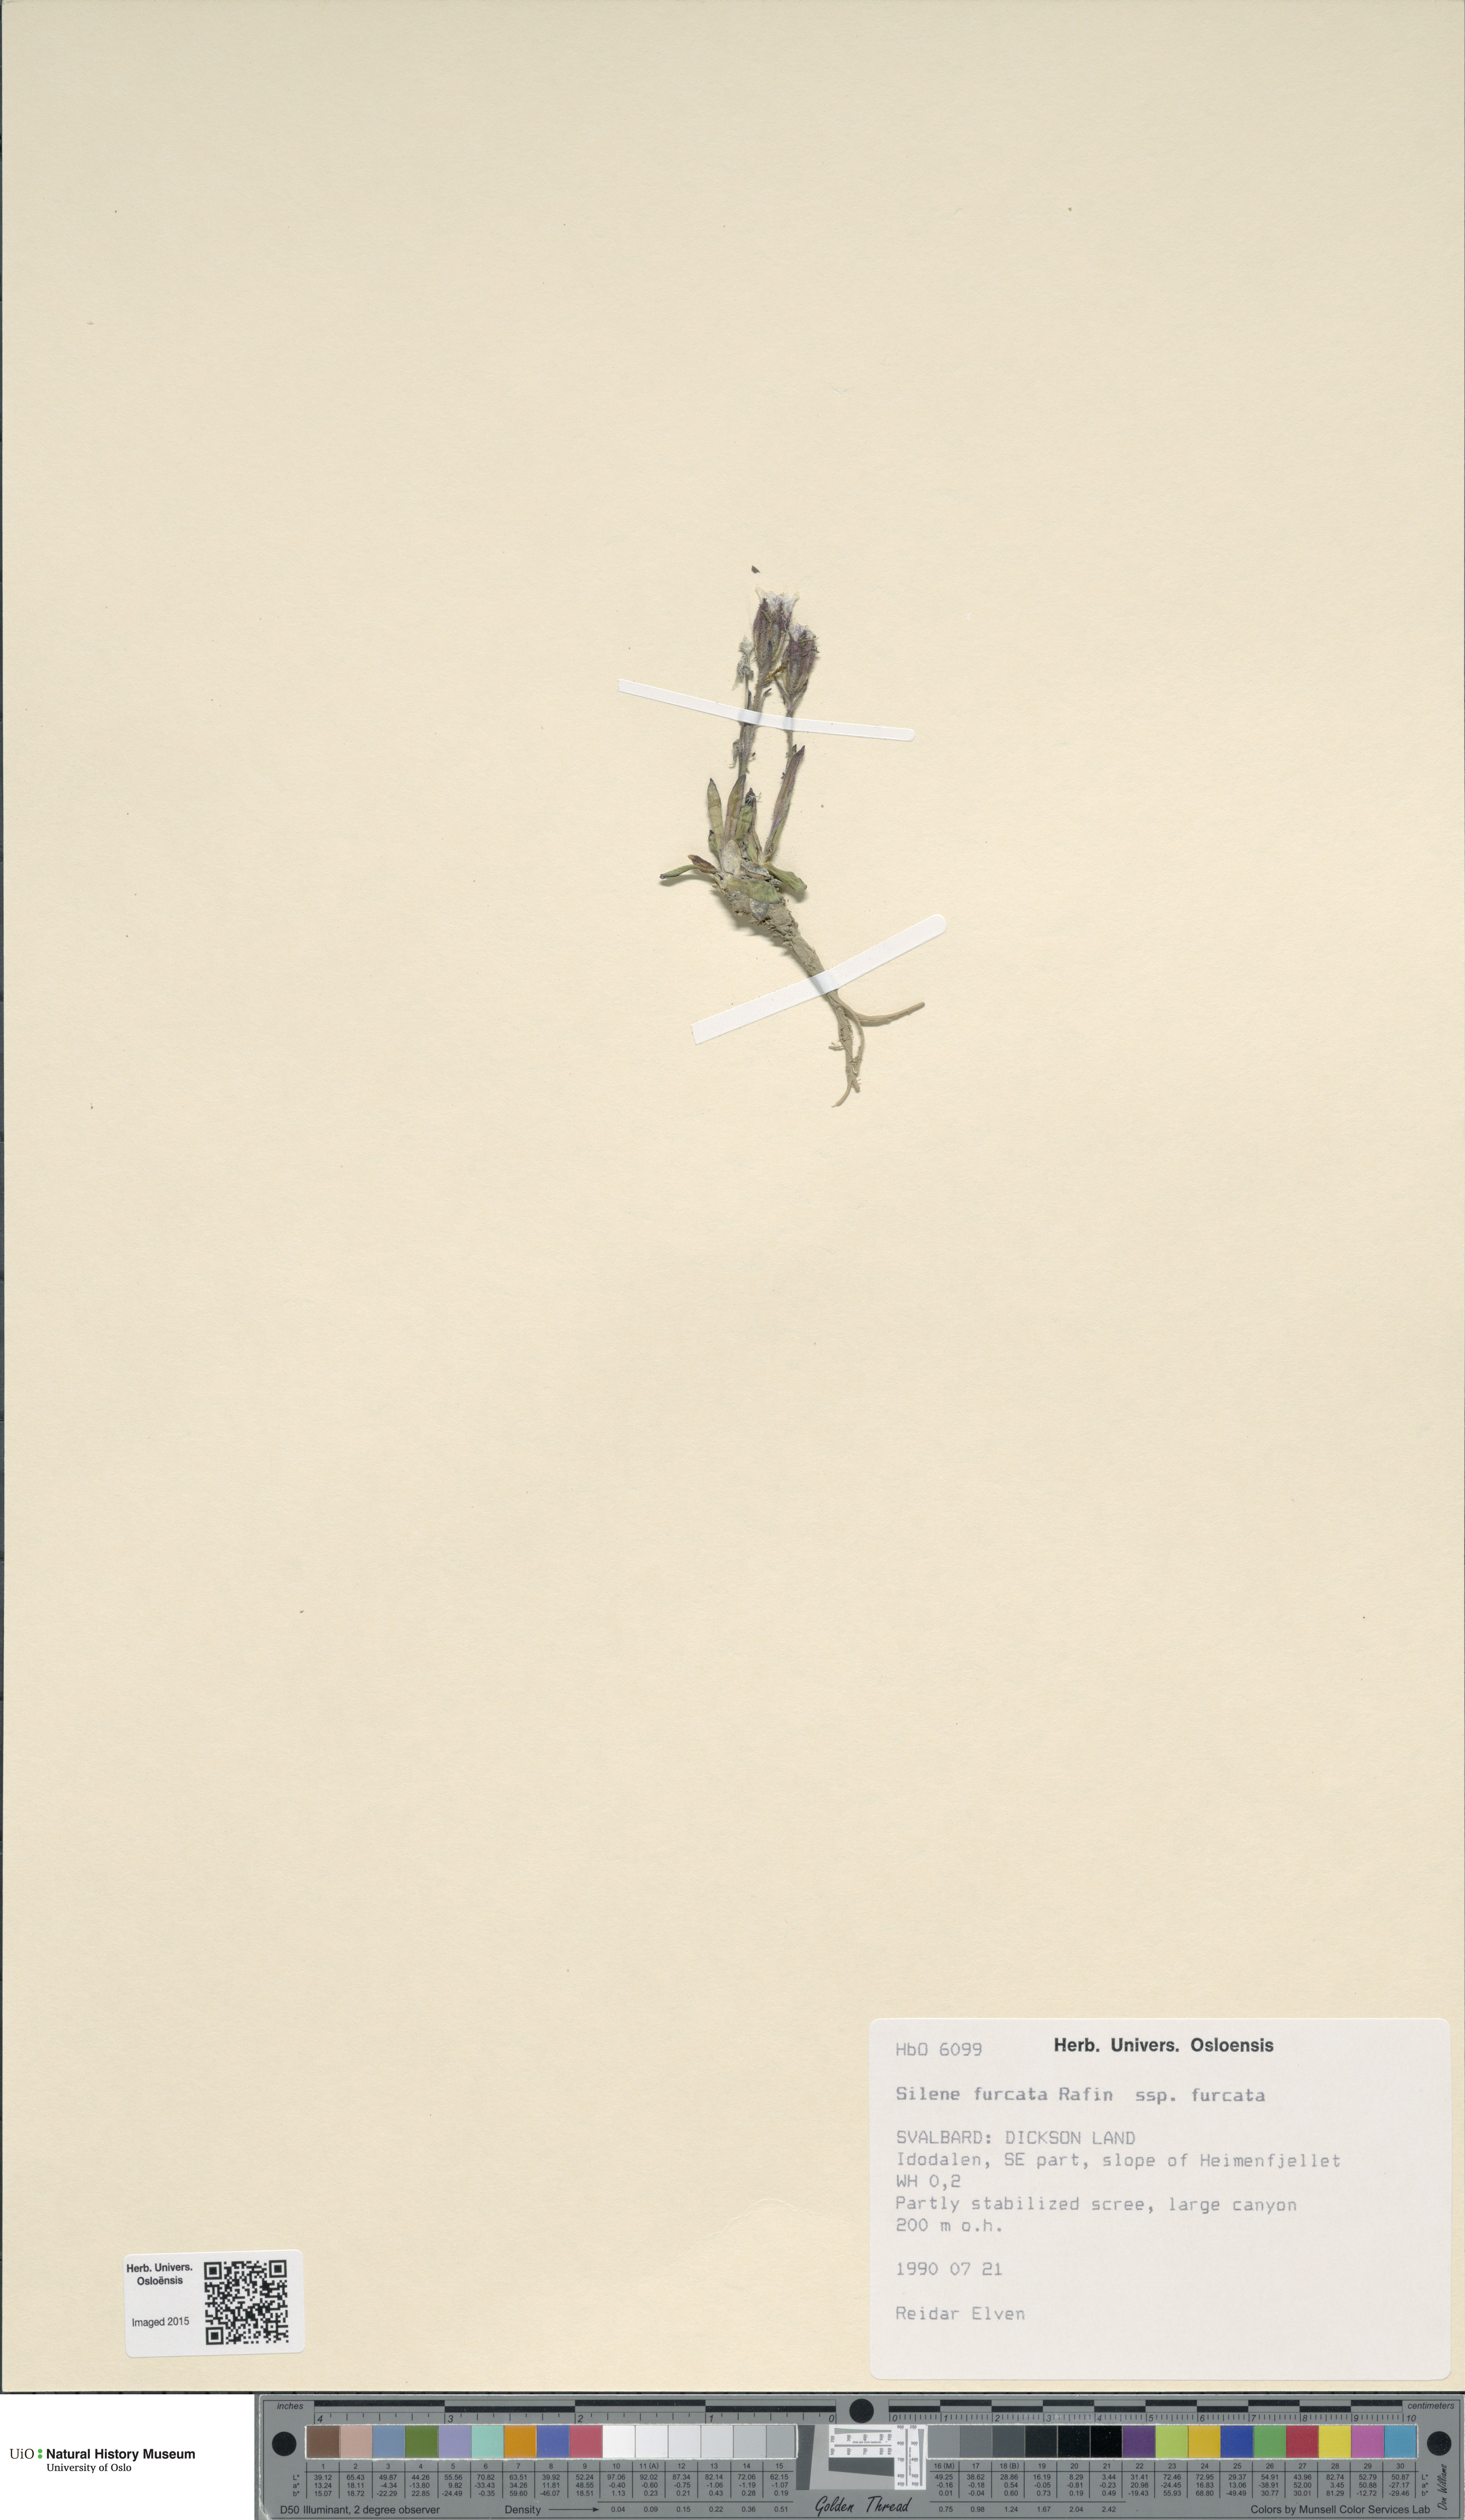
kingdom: Plantae
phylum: Tracheophyta
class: Magnoliopsida
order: Caryophyllales
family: Caryophyllaceae
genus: Silene
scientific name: Silene involucrata
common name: Greater arctic campion
